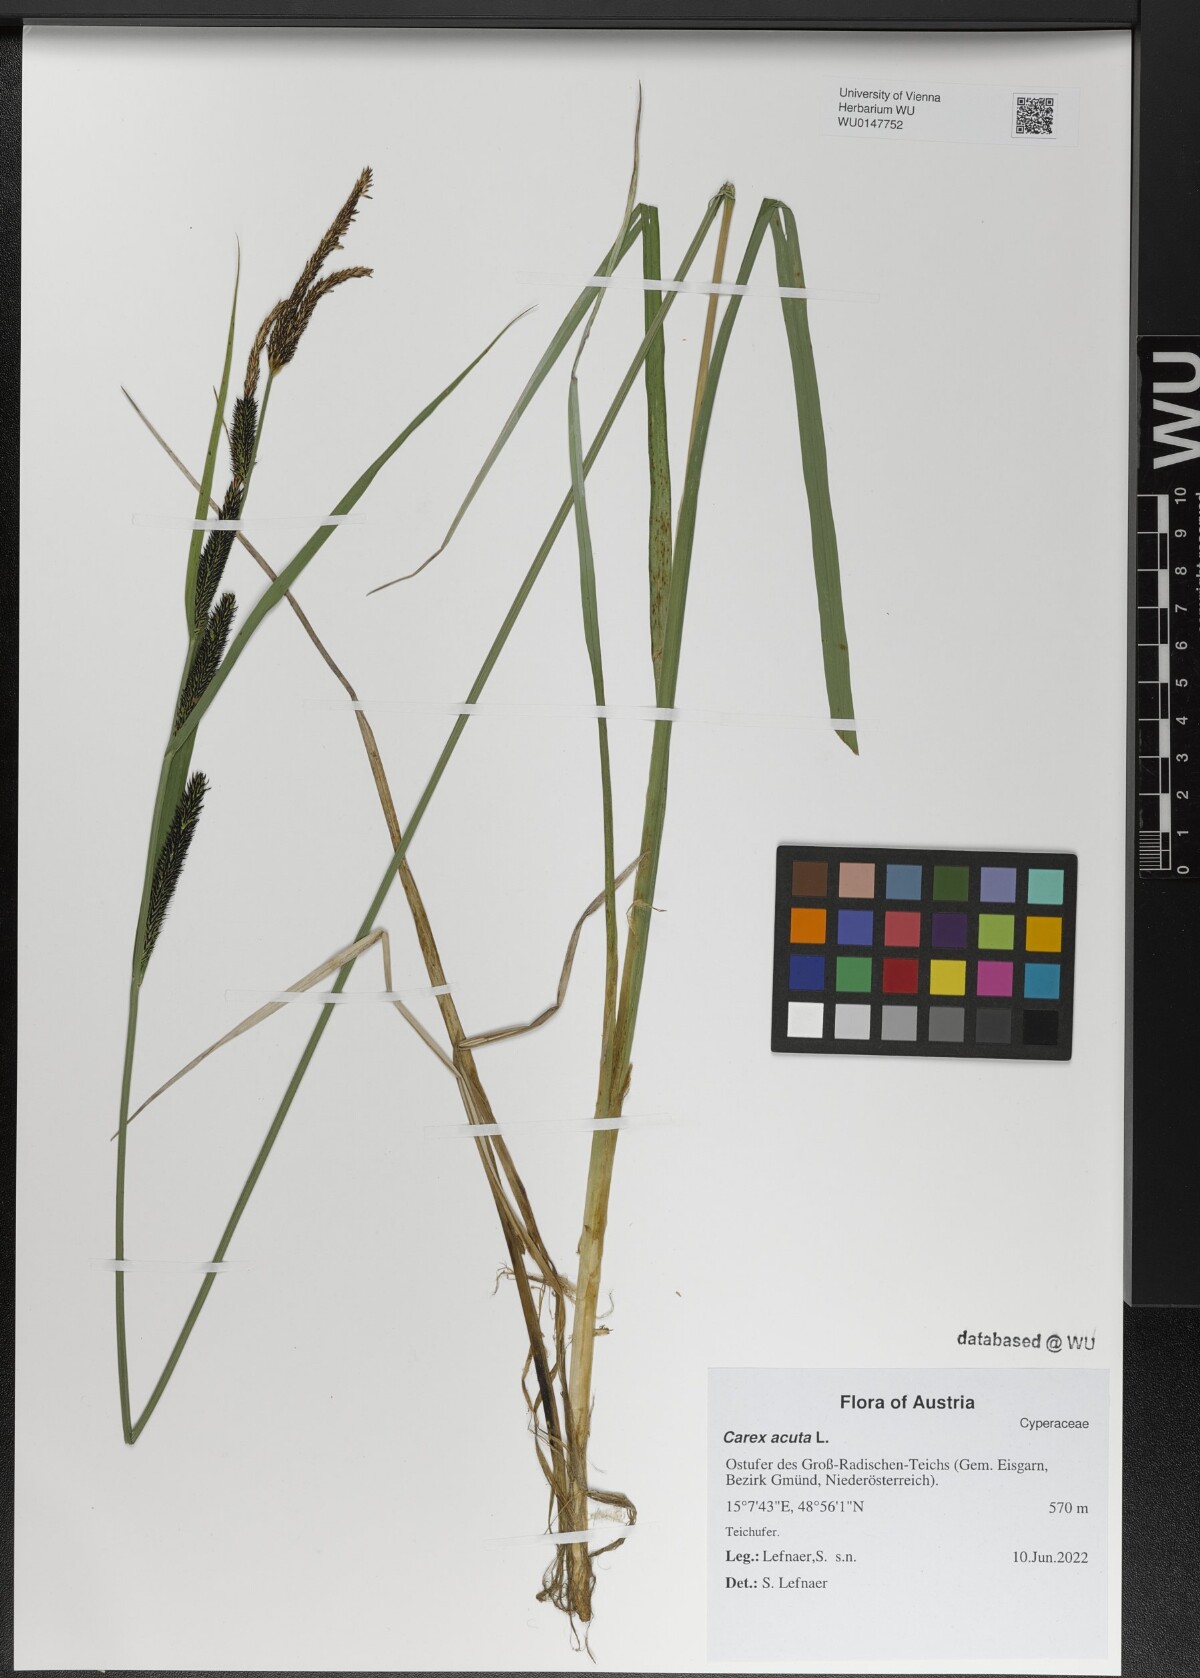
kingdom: Plantae
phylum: Tracheophyta
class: Liliopsida
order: Poales
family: Cyperaceae
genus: Carex
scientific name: Carex acuta
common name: Slender tufted-sedge
